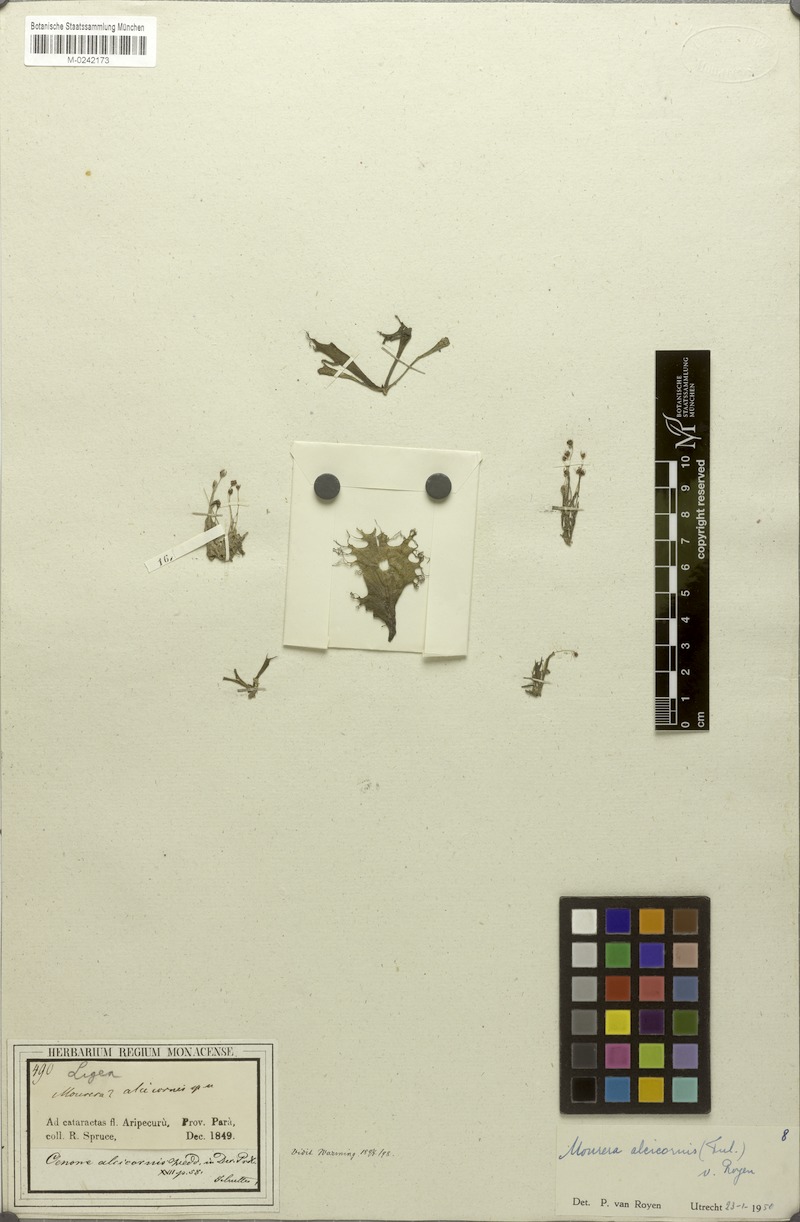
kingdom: Plantae
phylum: Tracheophyta
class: Magnoliopsida
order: Malpighiales
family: Podostemaceae
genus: Mourera
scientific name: Mourera alcicornis
